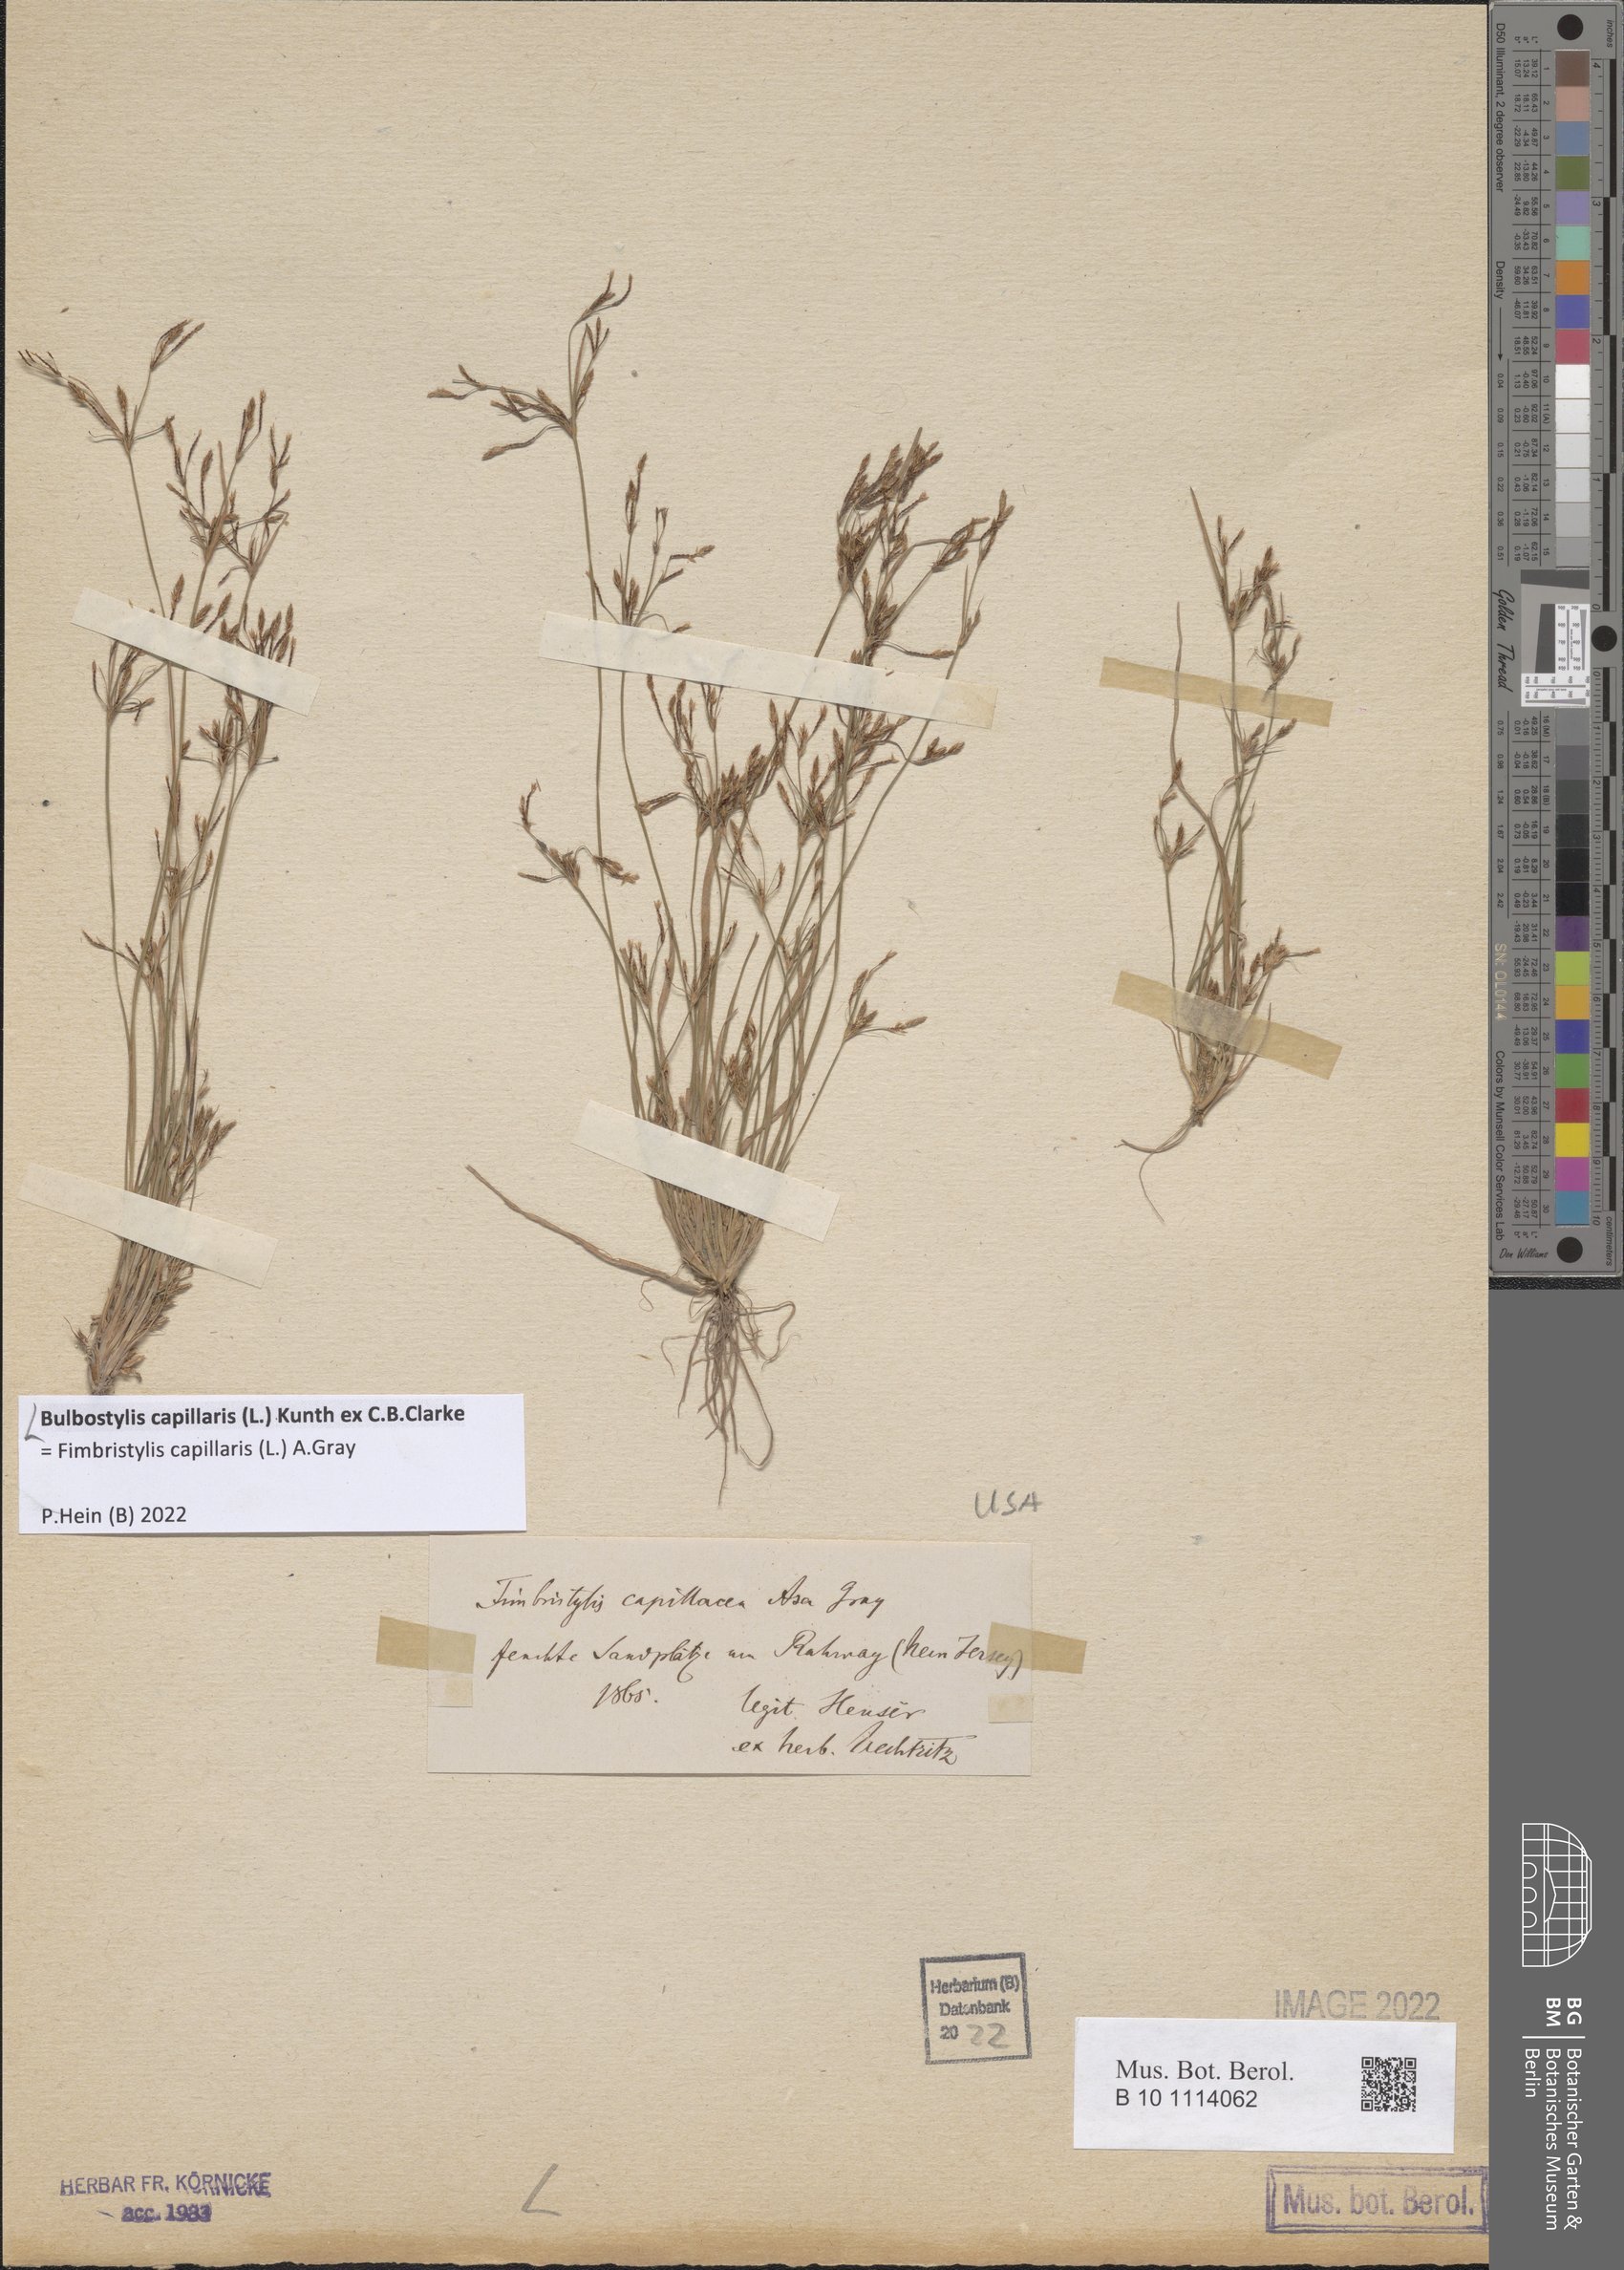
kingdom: Plantae
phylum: Tracheophyta
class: Liliopsida
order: Poales
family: Cyperaceae
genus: Bulbostylis
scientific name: Bulbostylis capillaris
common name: Densetuft hairsedge
